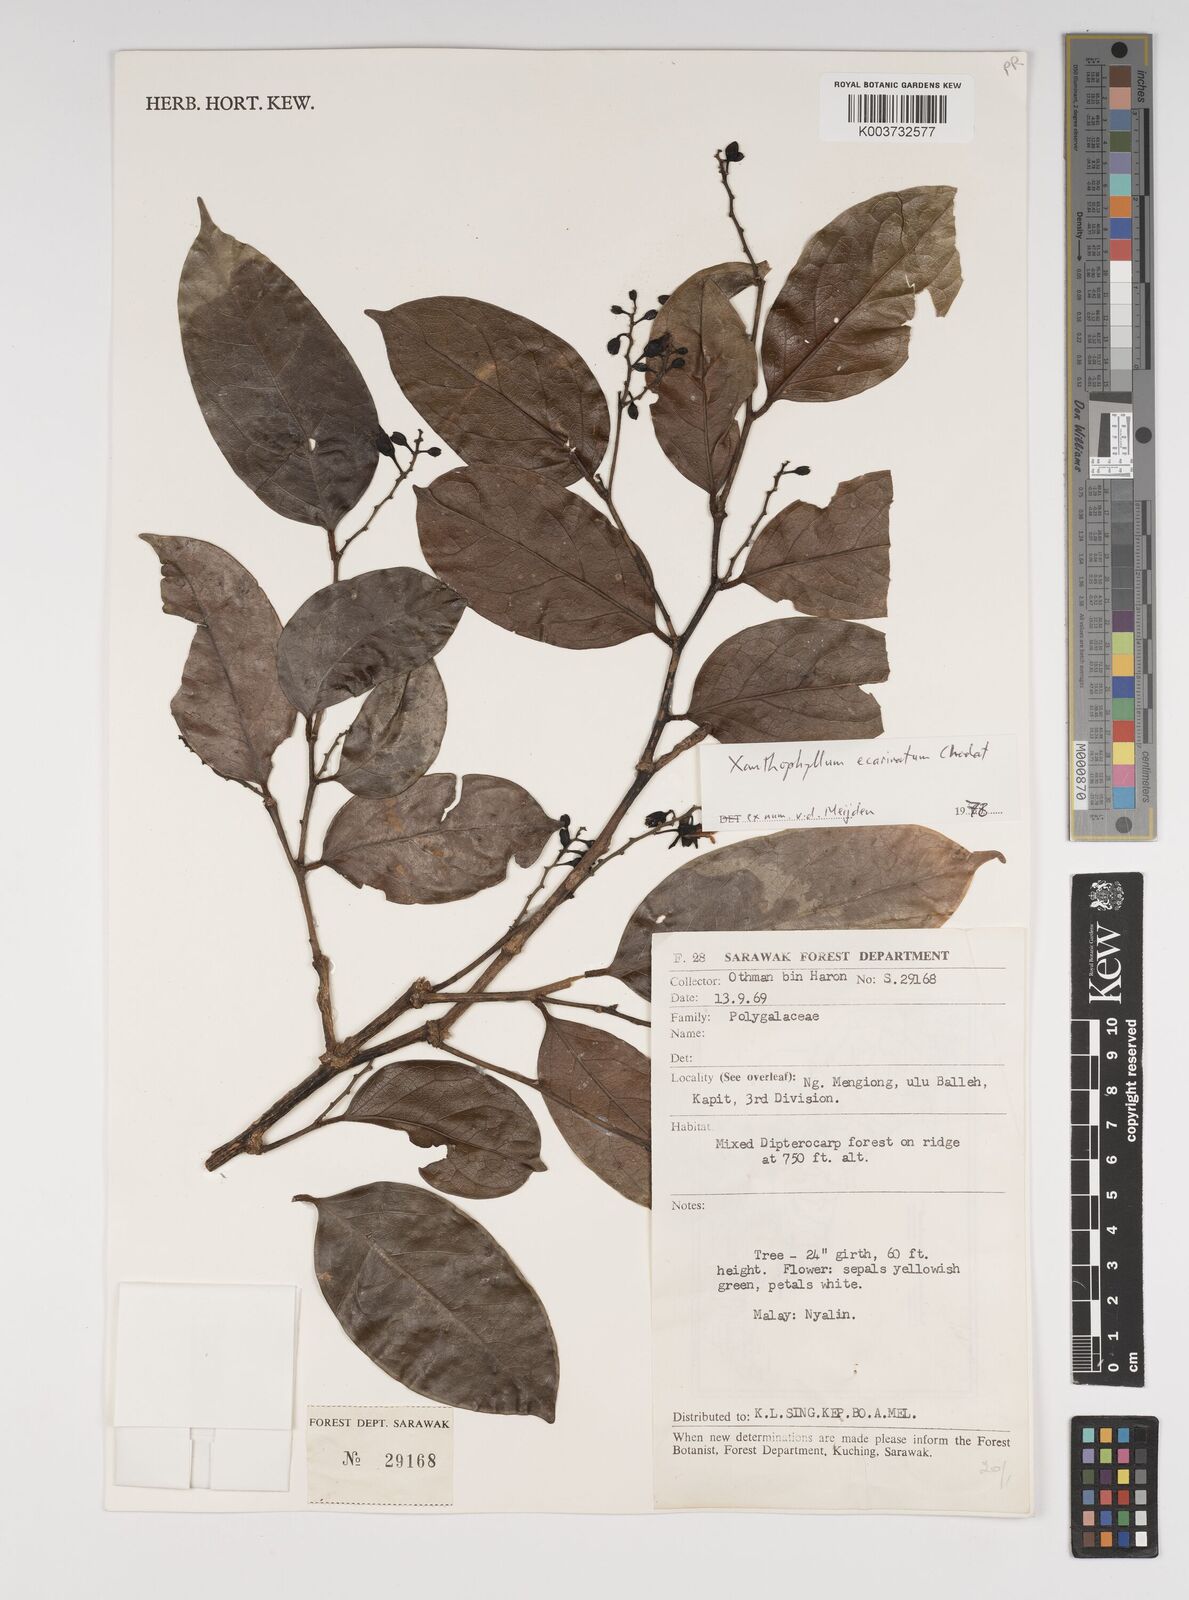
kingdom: Plantae
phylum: Tracheophyta
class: Magnoliopsida
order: Fabales
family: Polygalaceae
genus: Xanthophyllum
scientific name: Xanthophyllum ecarinatum
